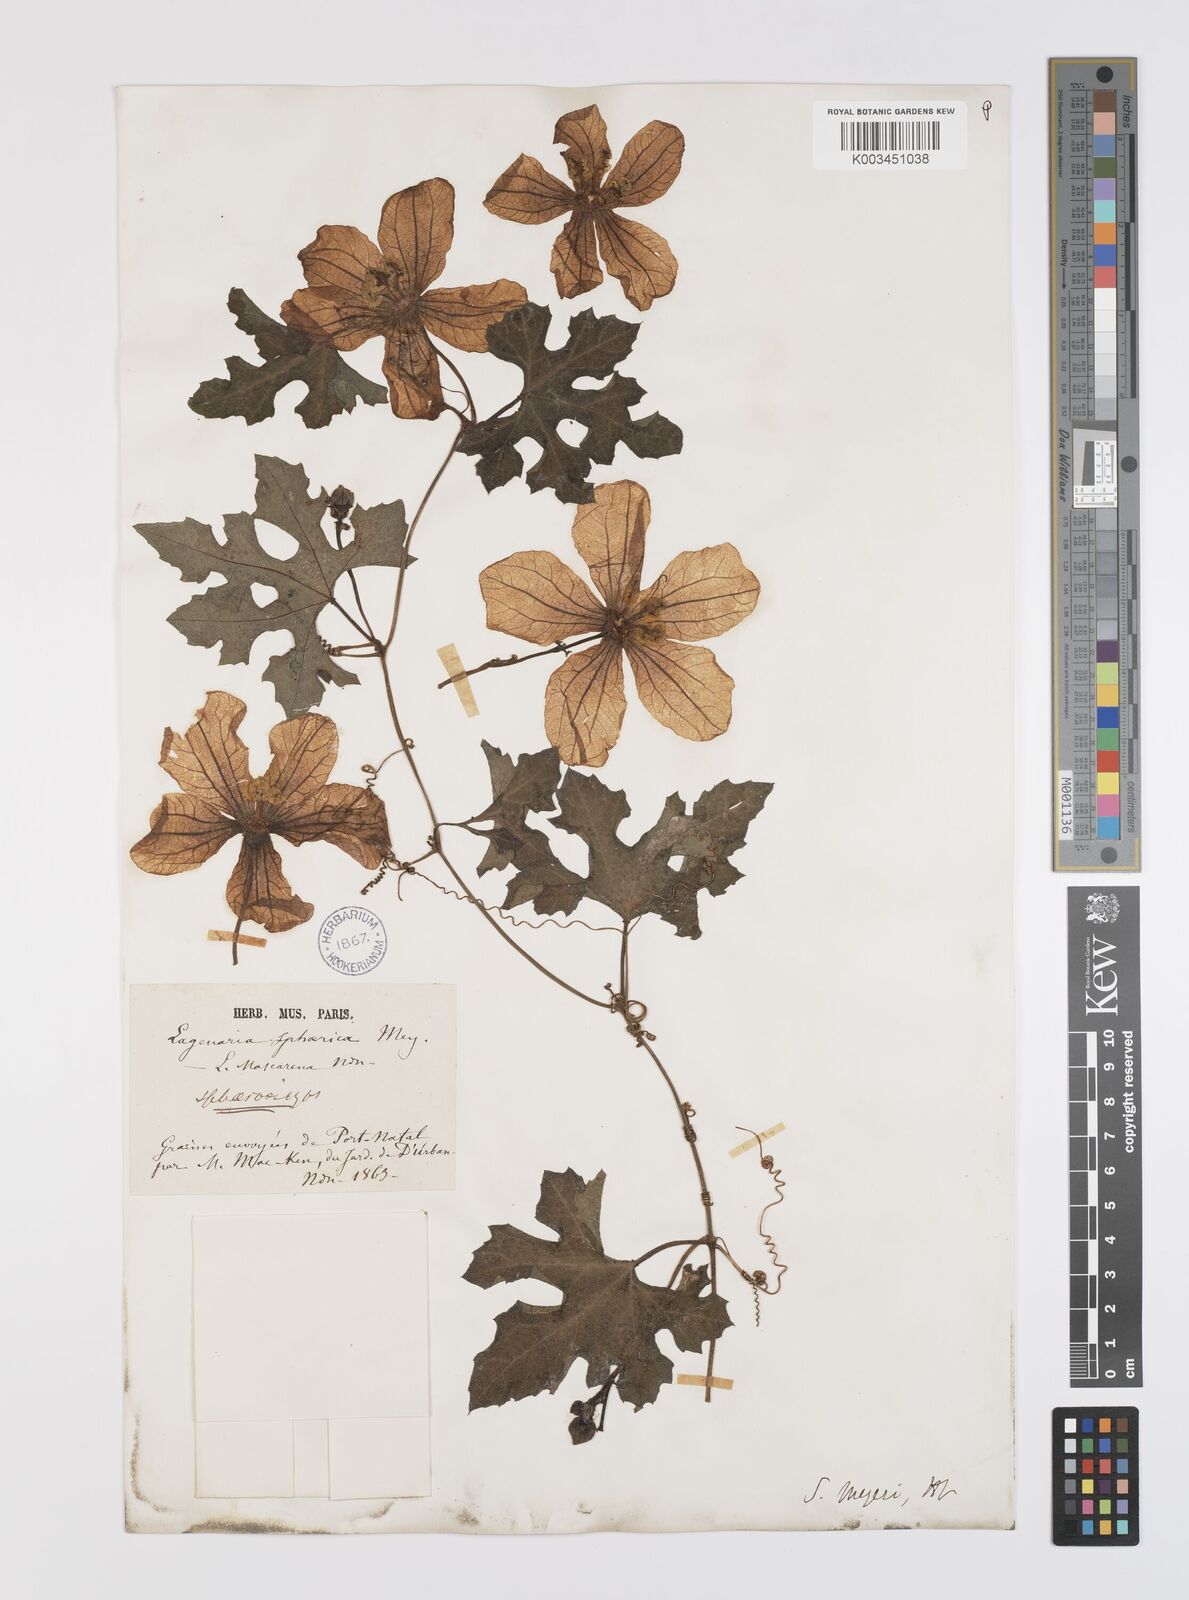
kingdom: Plantae
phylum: Tracheophyta
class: Magnoliopsida
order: Cucurbitales
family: Cucurbitaceae
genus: Lagenaria
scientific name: Lagenaria sphaerica
